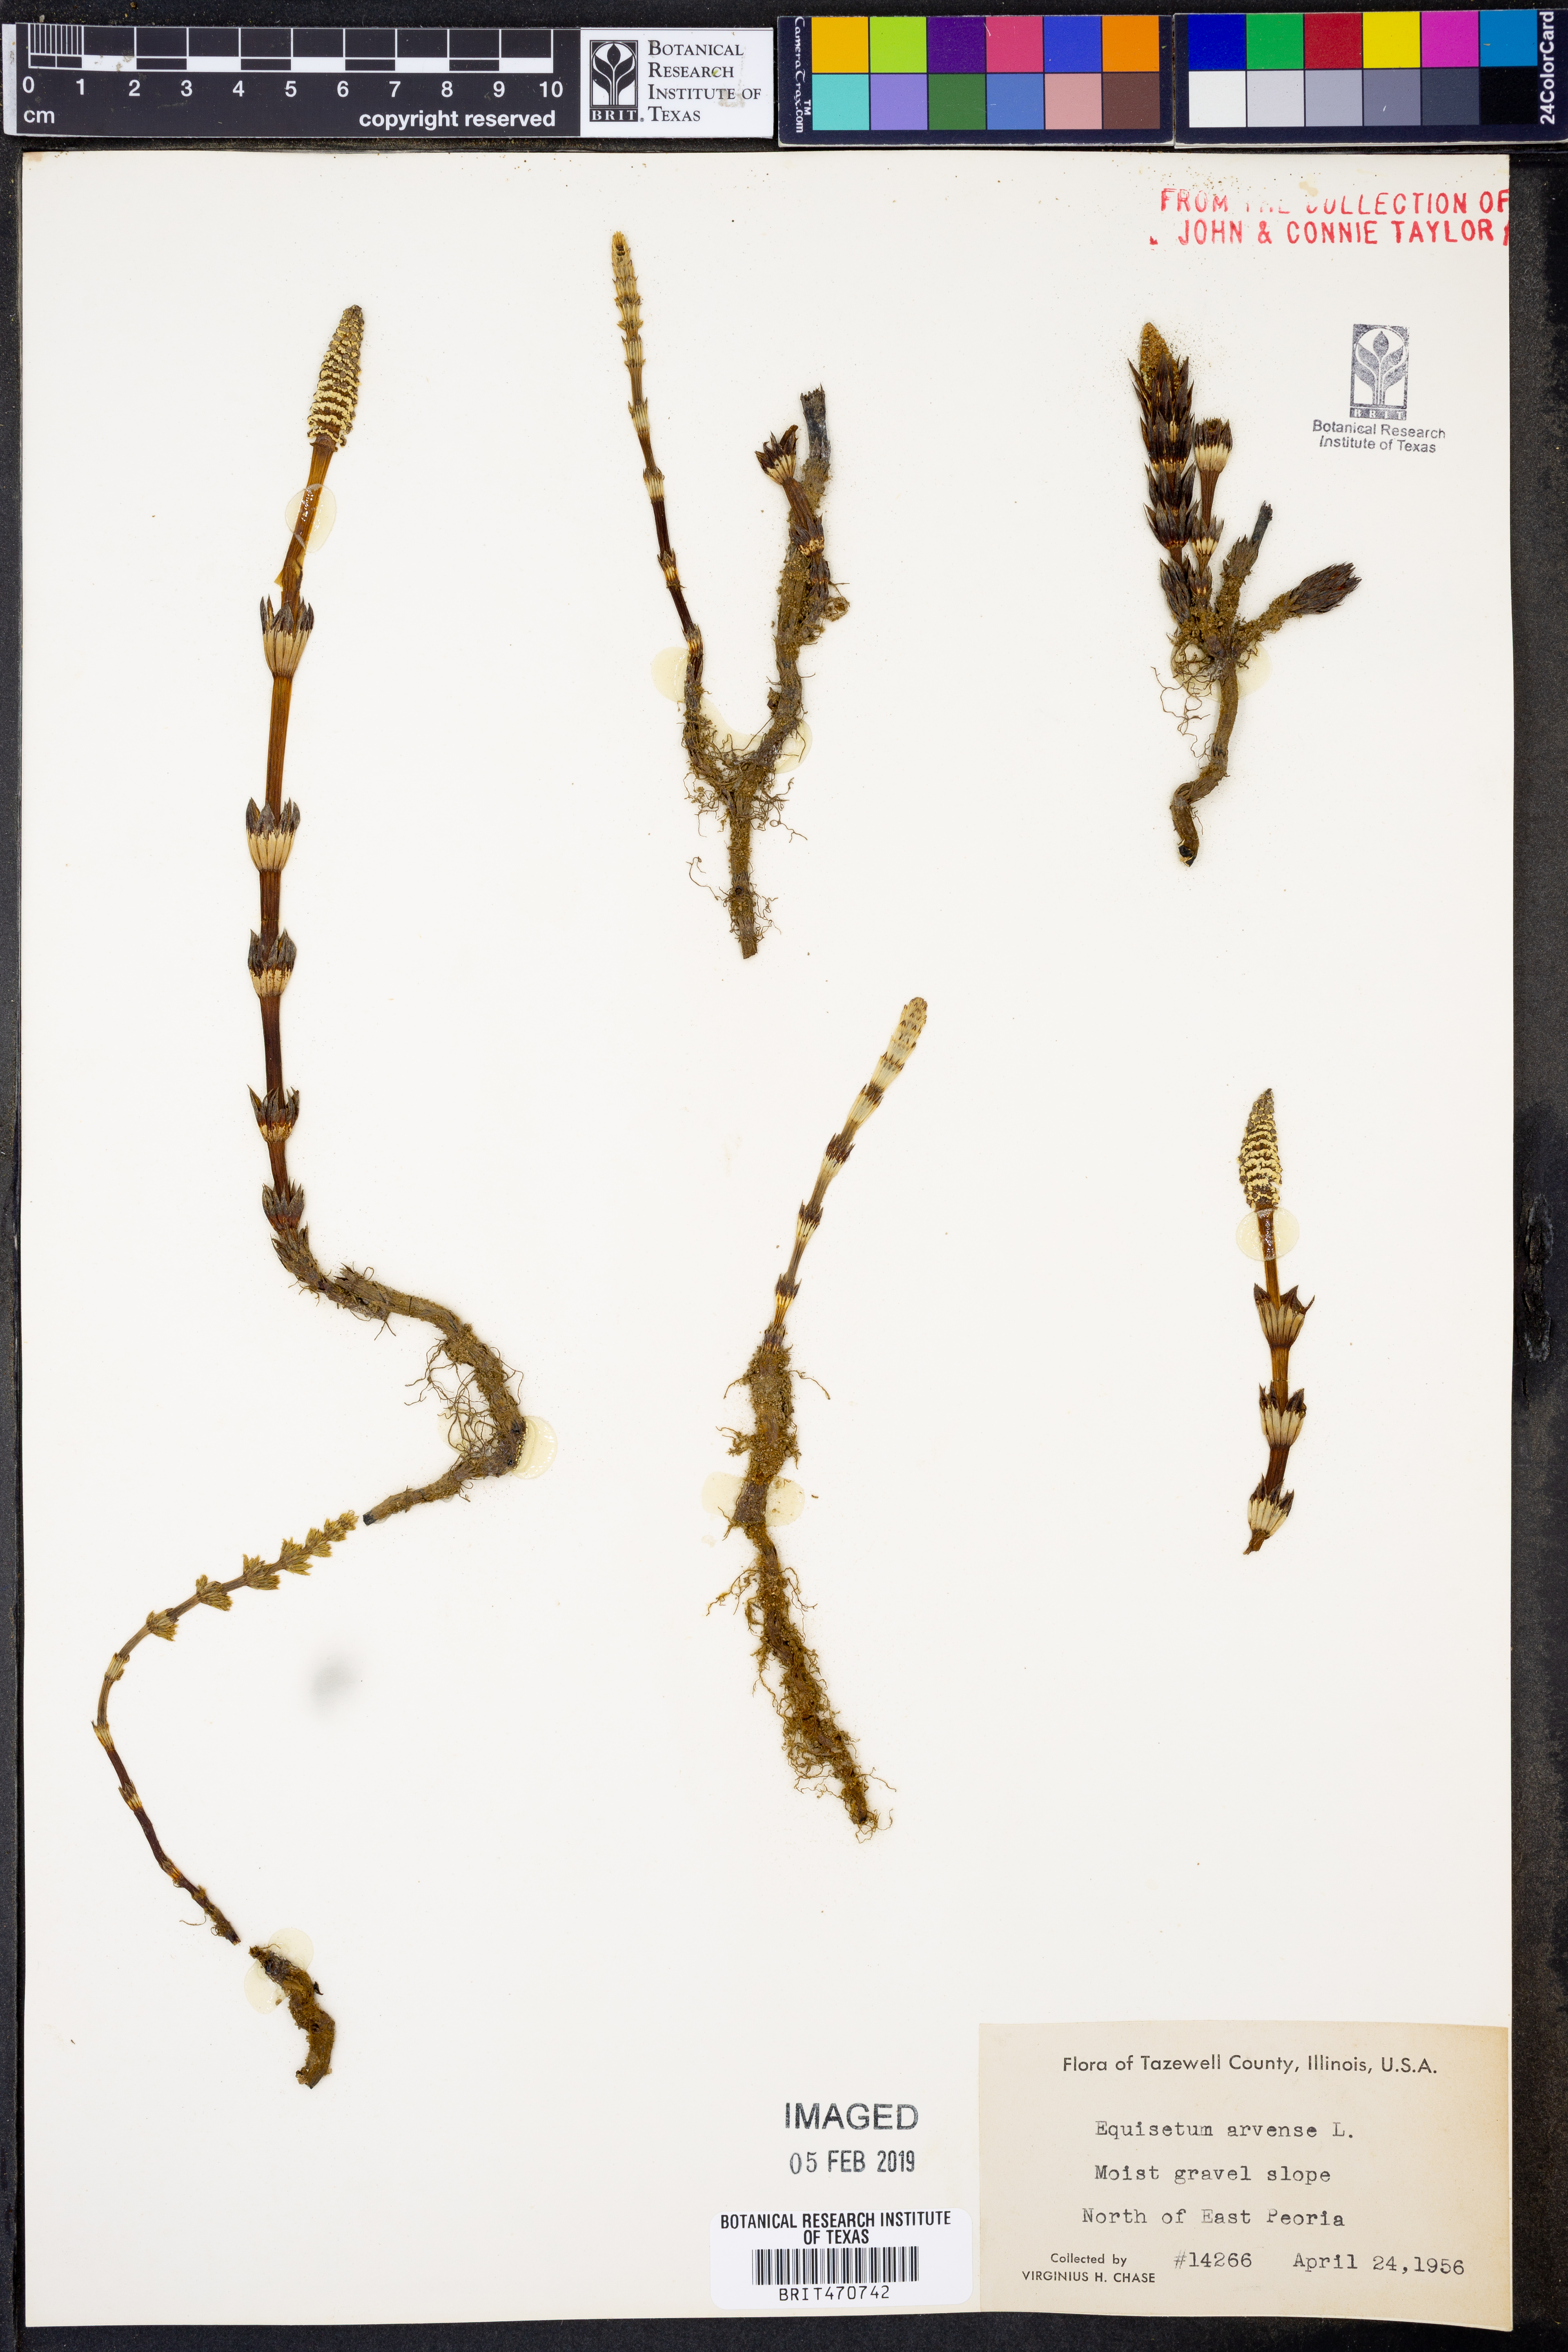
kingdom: Plantae
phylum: Tracheophyta
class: Polypodiopsida
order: Equisetales
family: Equisetaceae
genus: Equisetum
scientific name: Equisetum arvense
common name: Field horsetail
